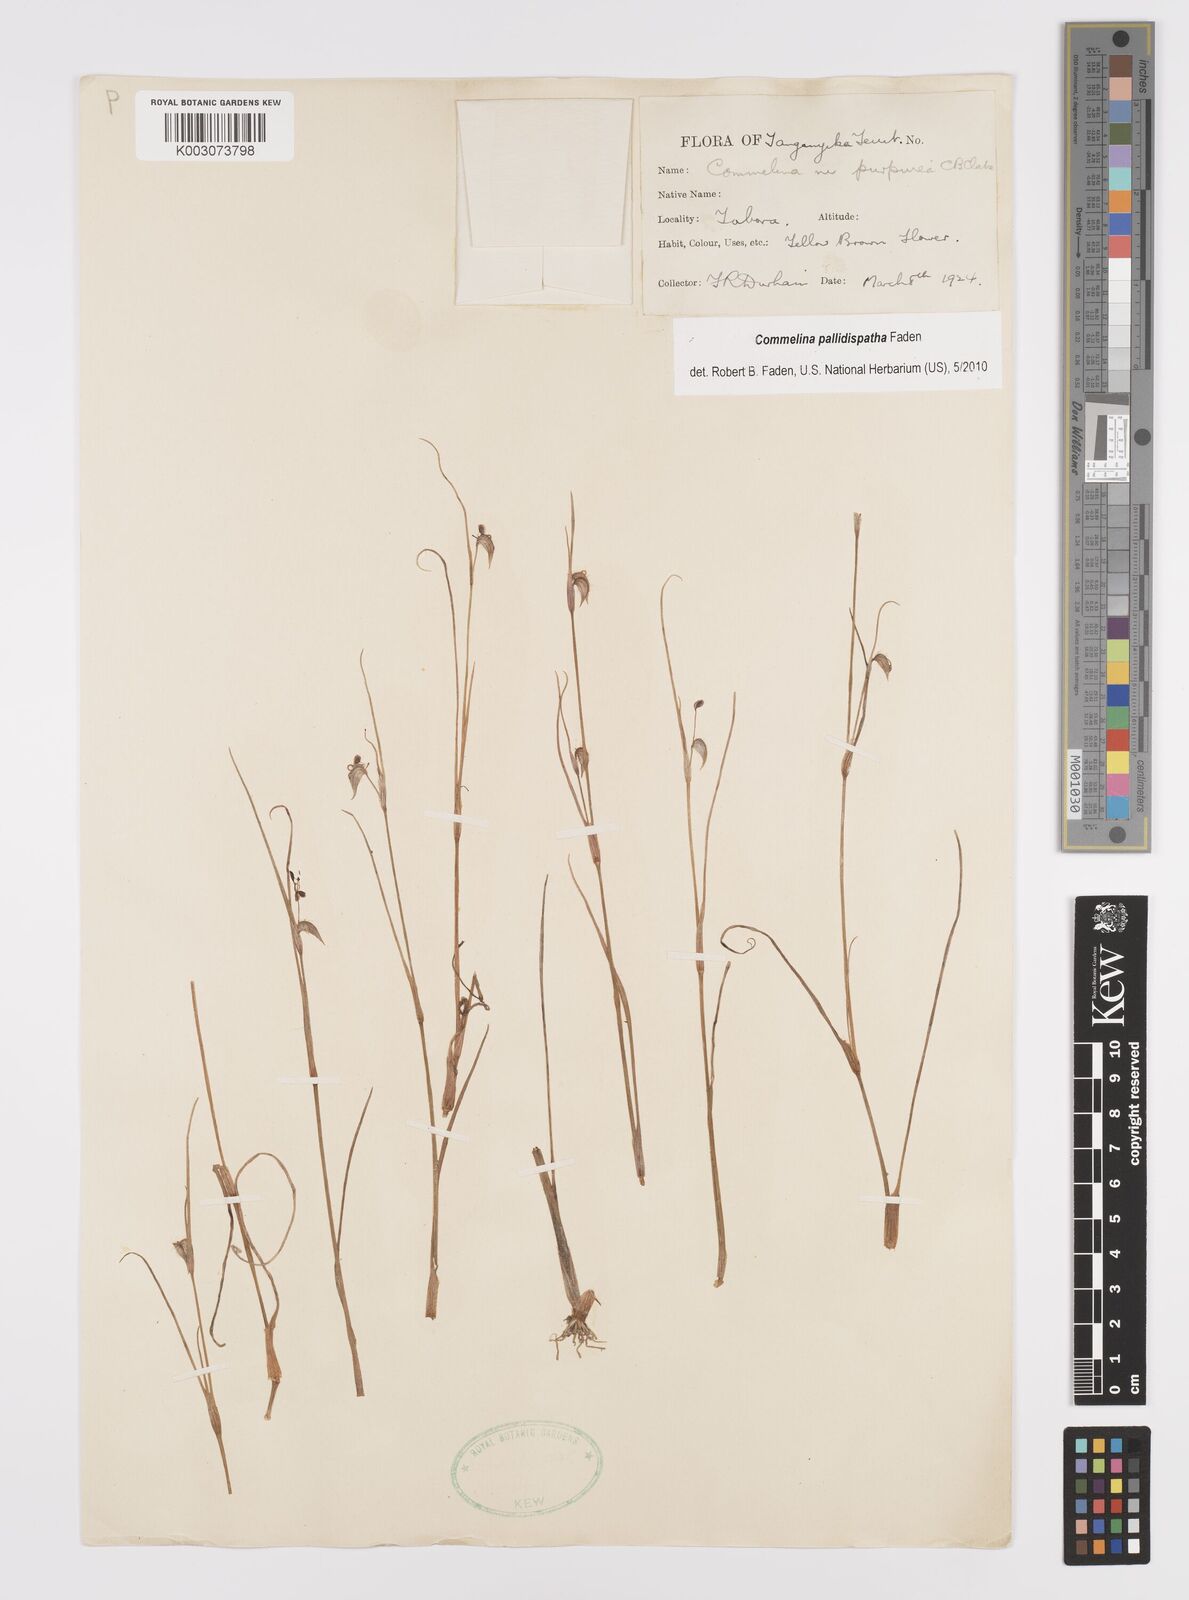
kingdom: Plantae
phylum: Tracheophyta
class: Liliopsida
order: Commelinales
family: Commelinaceae
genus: Commelina
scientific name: Commelina pallidispatha
